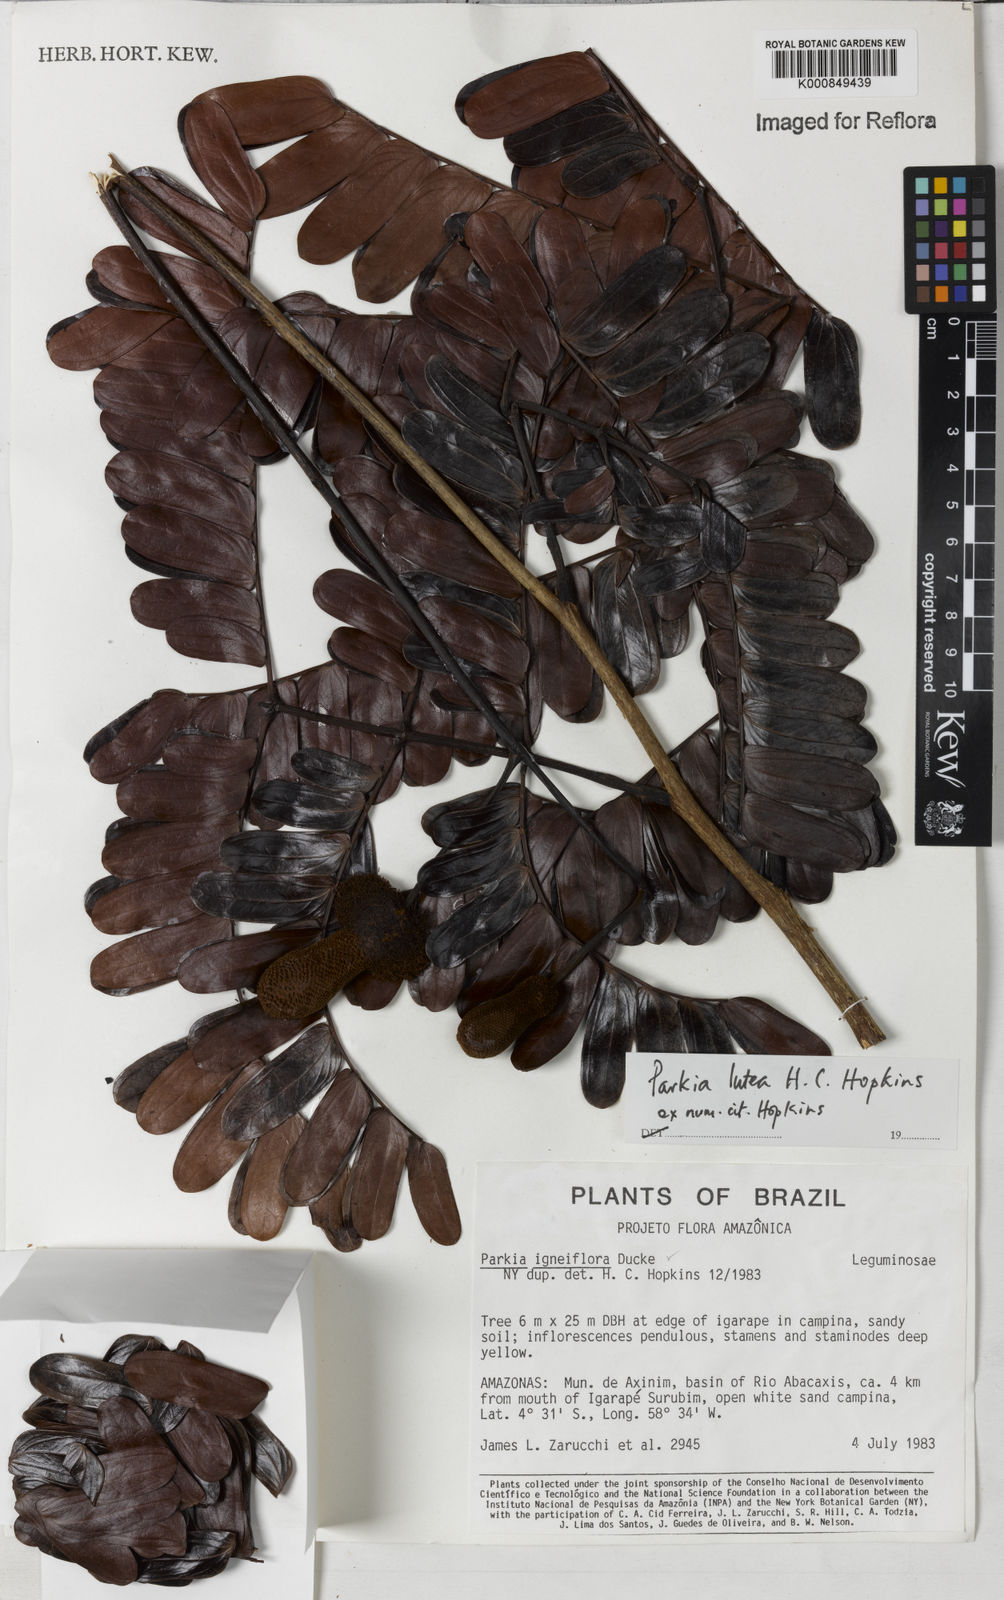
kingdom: Plantae
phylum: Tracheophyta
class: Magnoliopsida
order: Fabales
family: Fabaceae
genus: Parkia
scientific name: Parkia lutea
